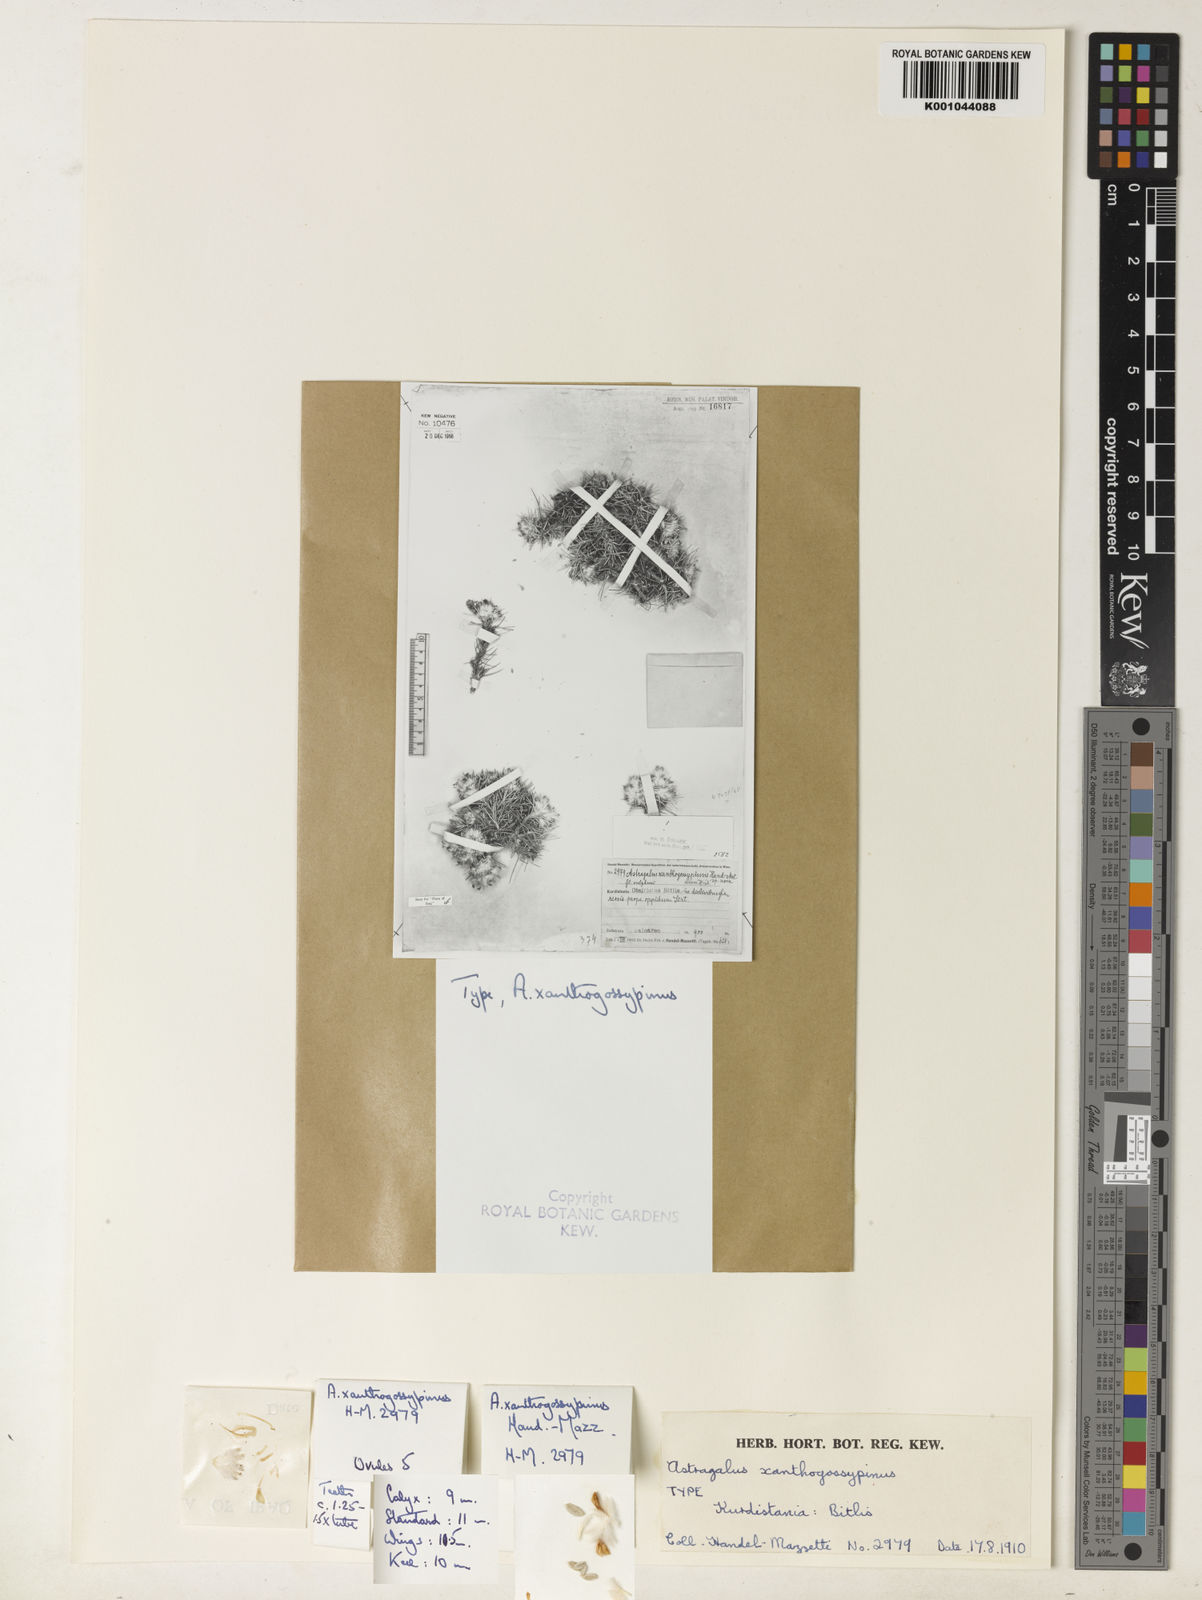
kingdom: Plantae
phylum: Tracheophyta
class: Magnoliopsida
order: Fabales
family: Fabaceae
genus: Astragalus
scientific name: Astragalus gossypinus
